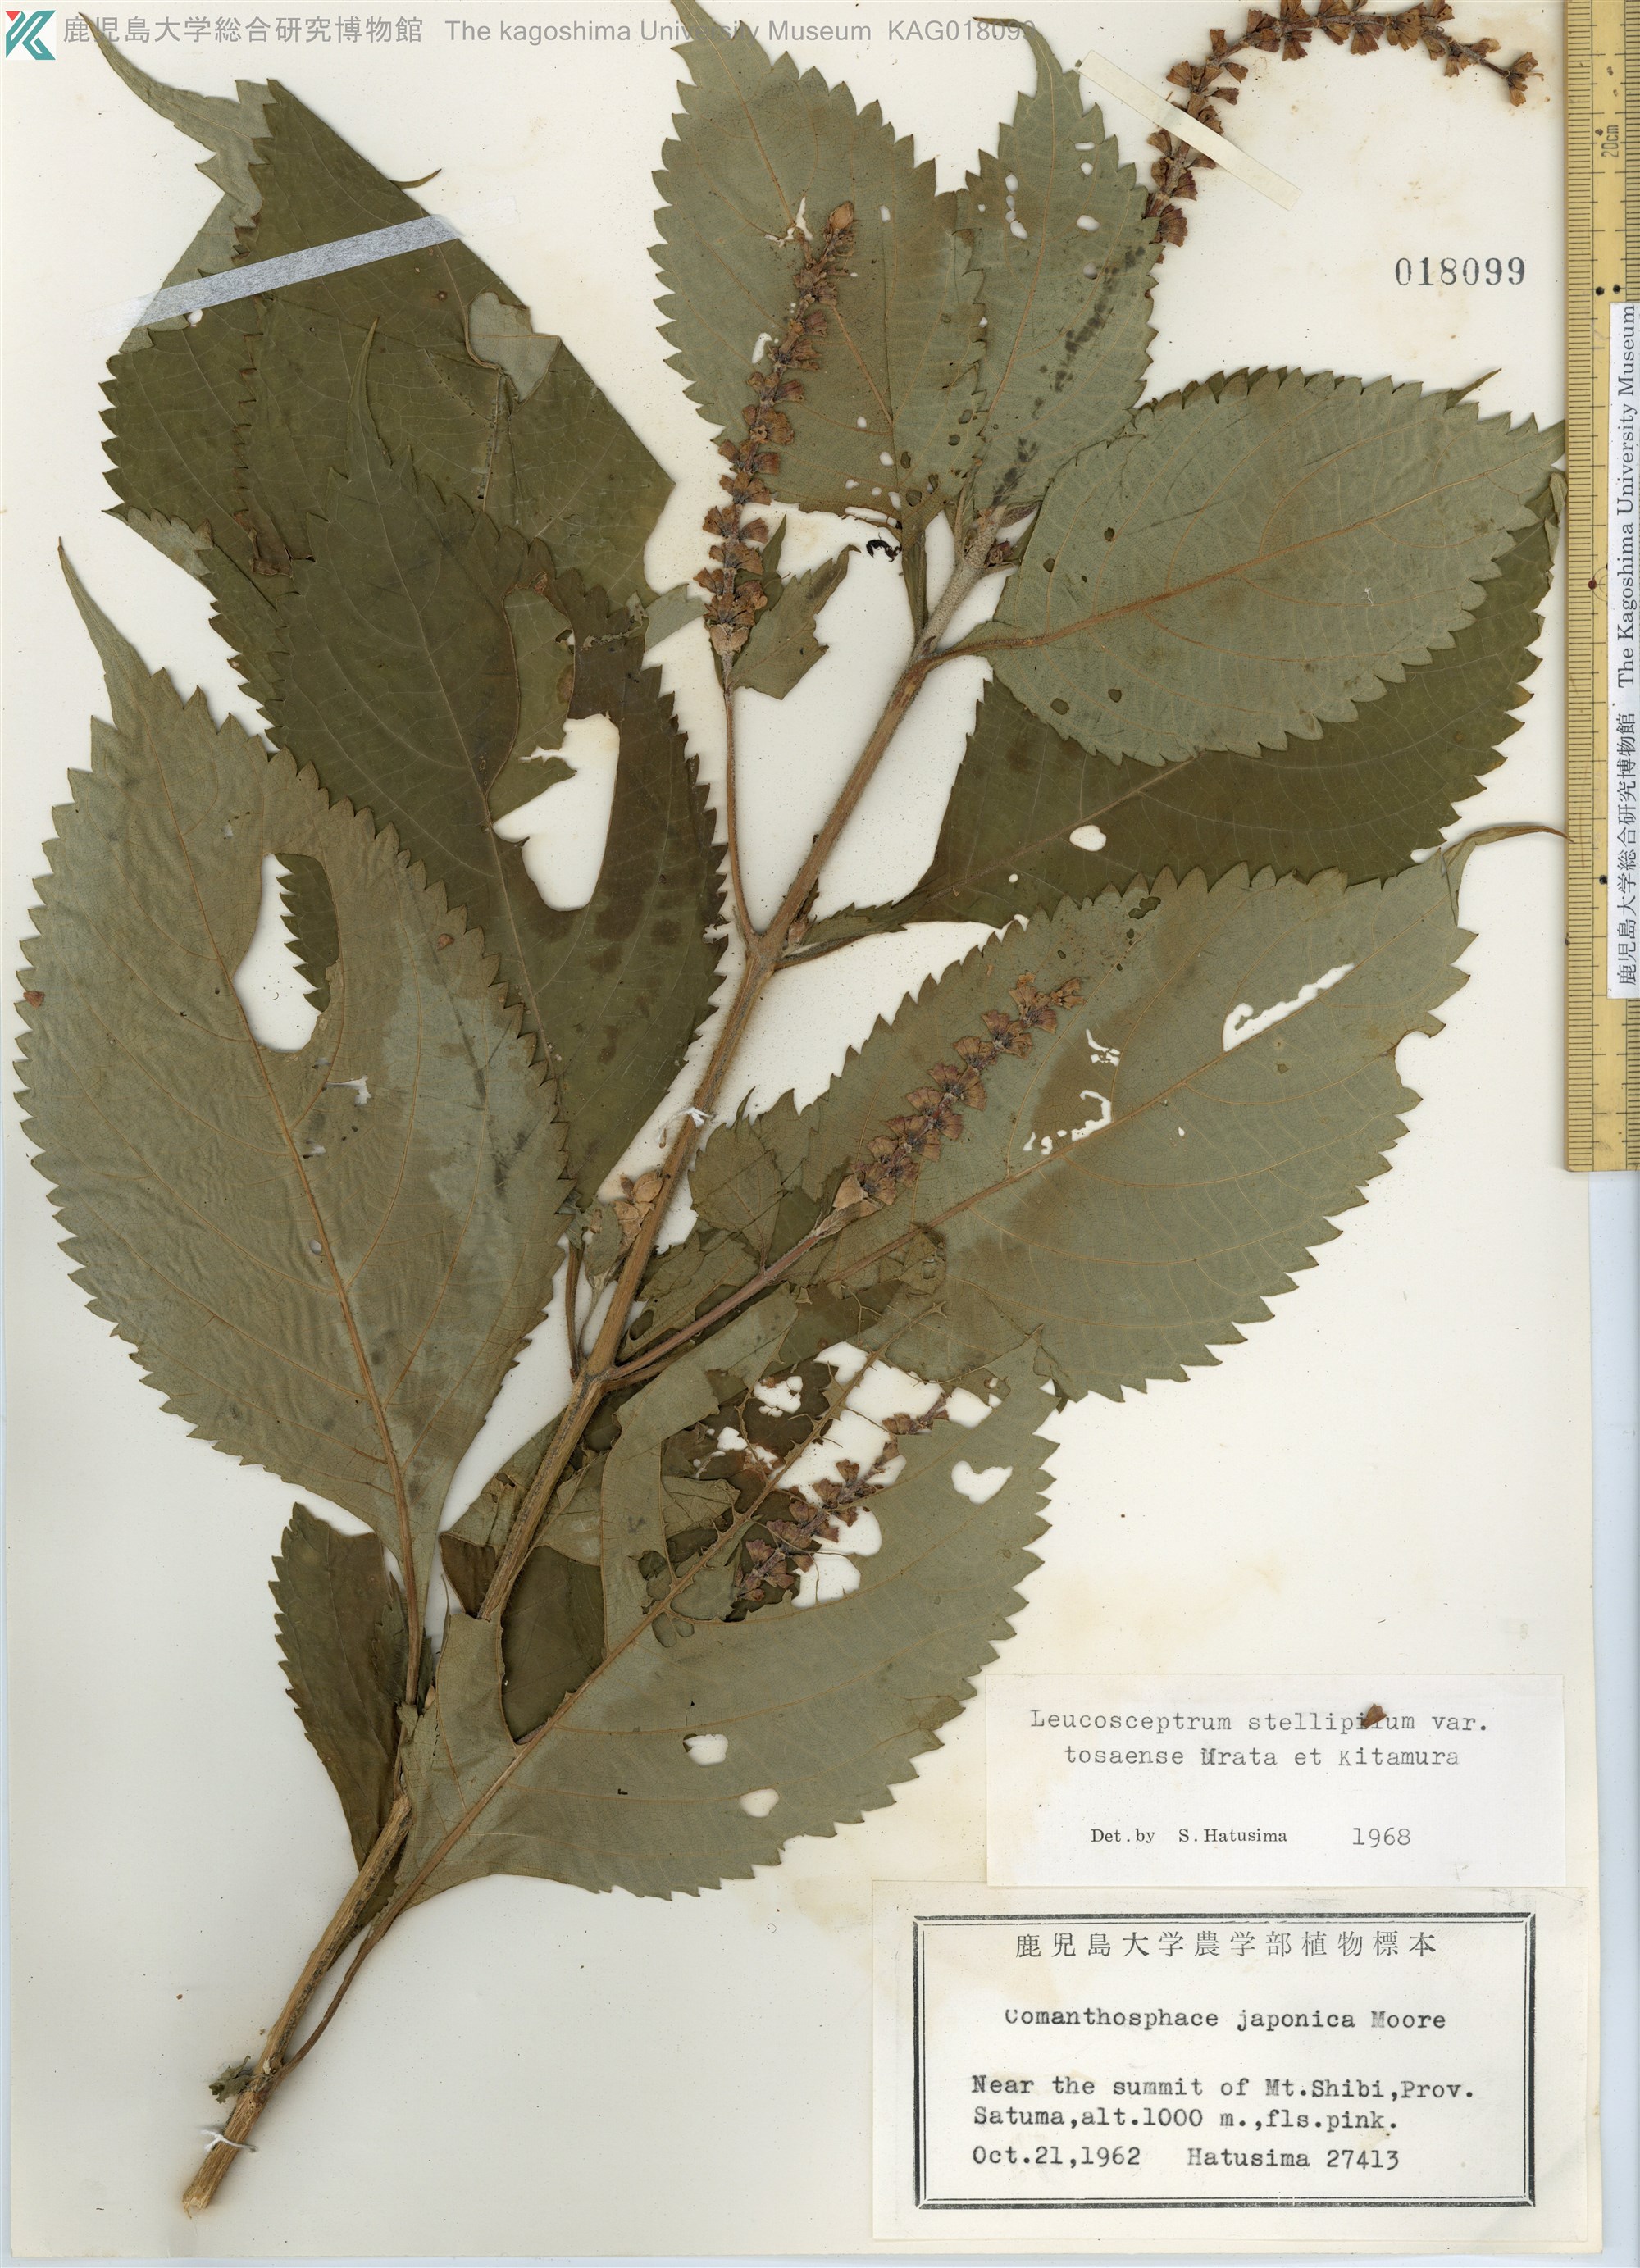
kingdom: Plantae
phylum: Tracheophyta
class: Magnoliopsida
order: Lamiales
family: Lamiaceae
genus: Comanthosphace
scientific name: Comanthosphace japonica
